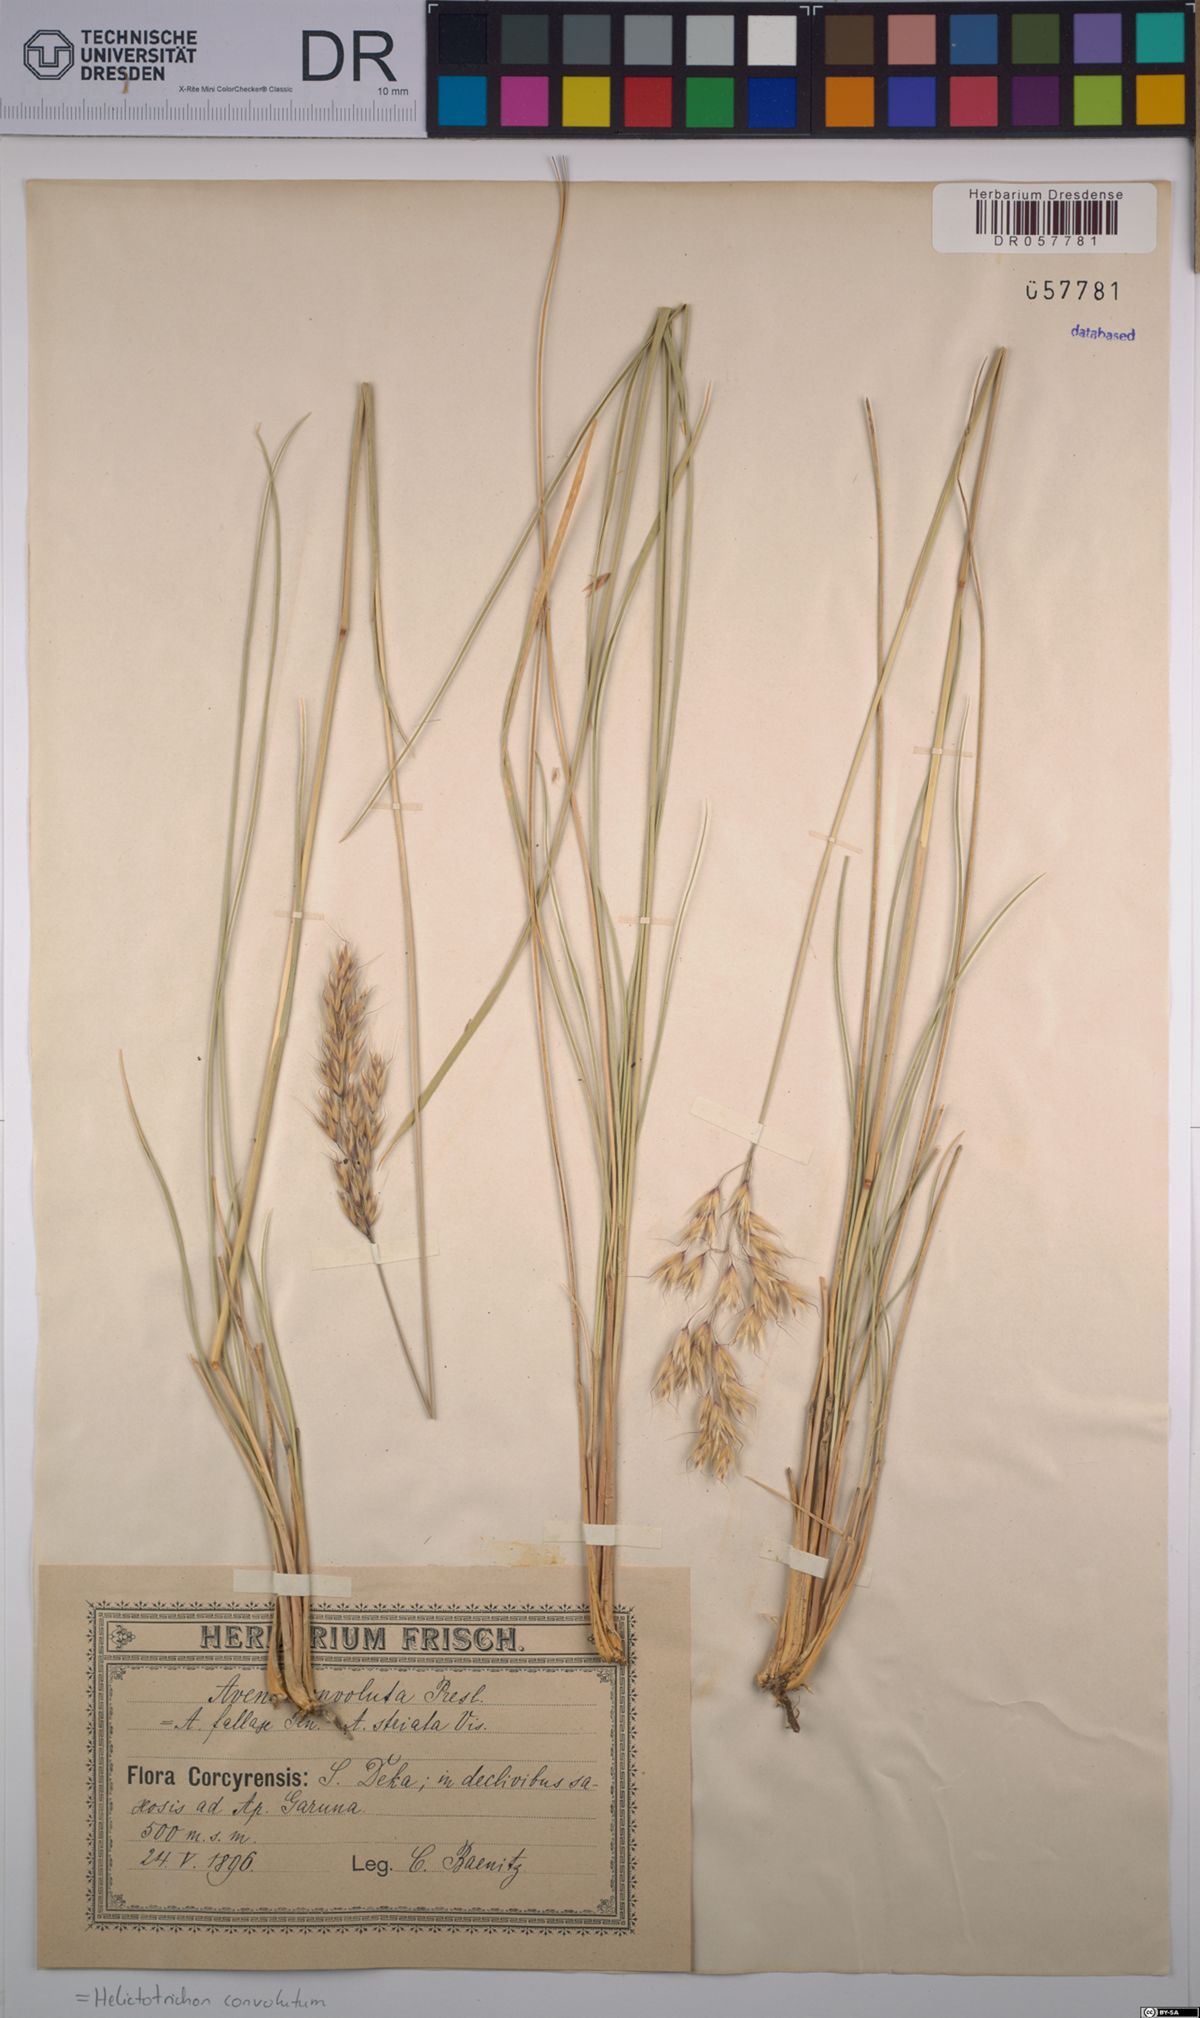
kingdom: Plantae
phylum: Tracheophyta
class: Liliopsida
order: Poales
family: Poaceae
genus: Helictotrichon
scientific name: Helictotrichon convolutum
